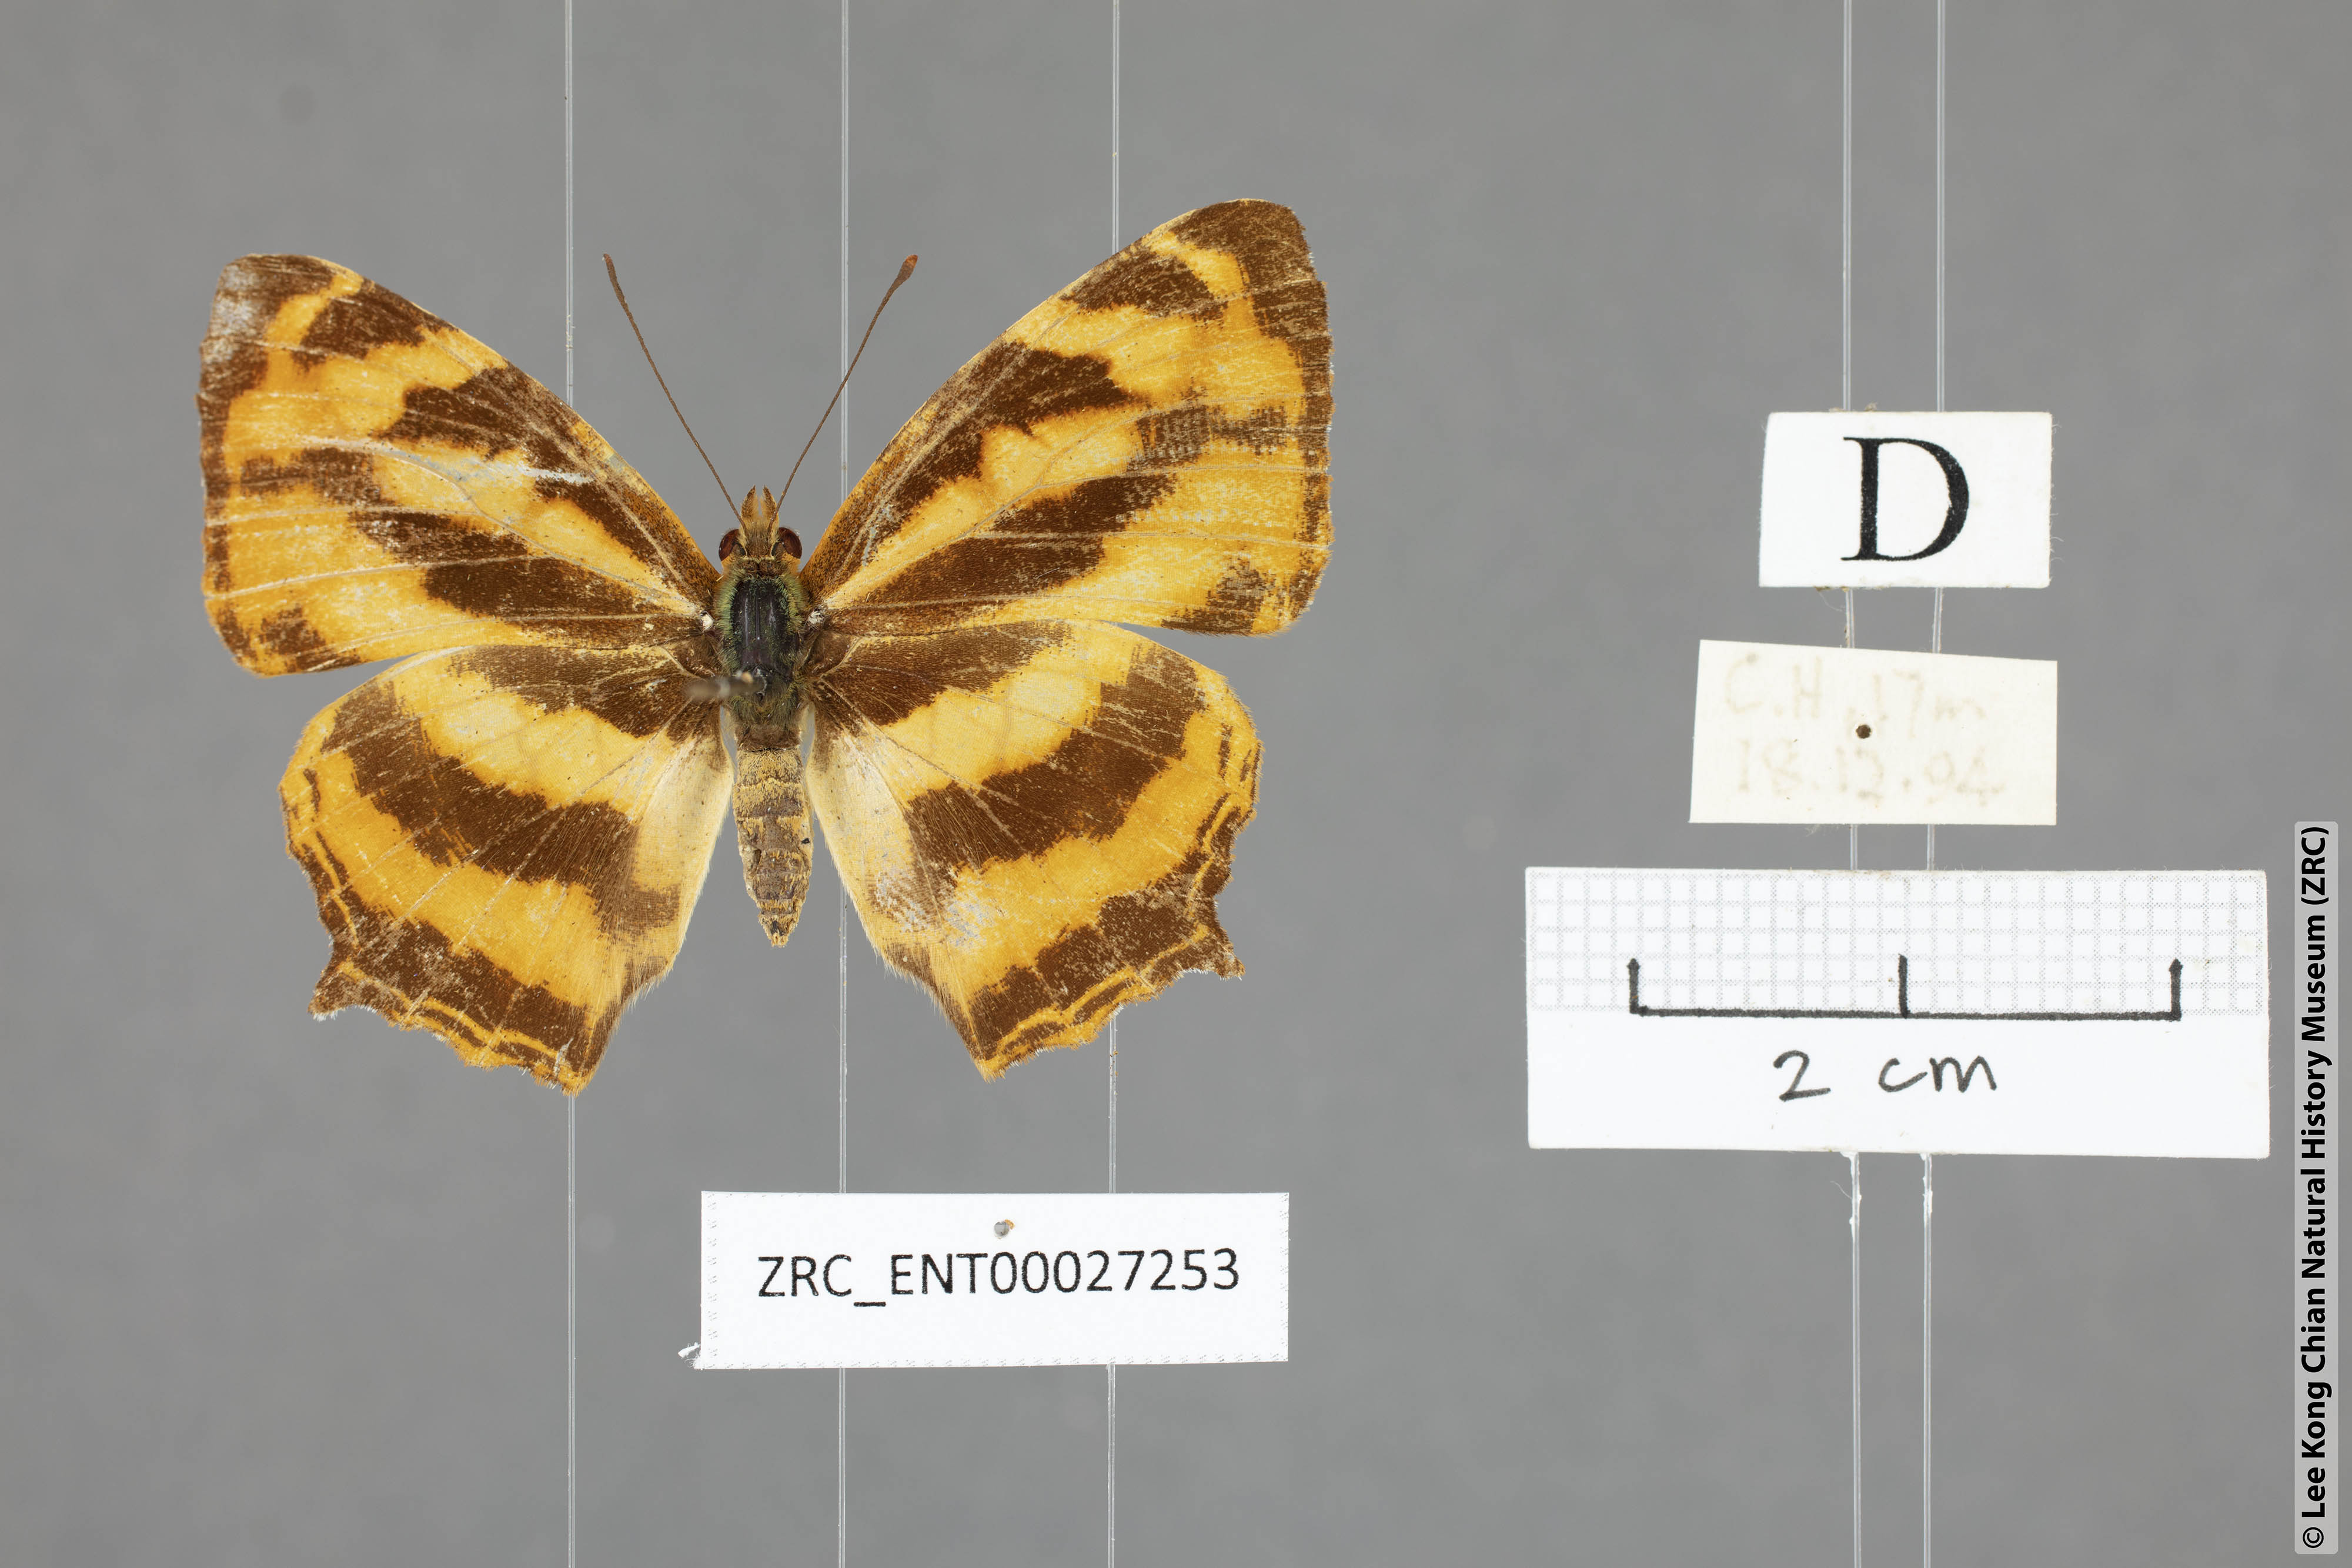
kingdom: Animalia
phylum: Arthropoda
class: Insecta
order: Lepidoptera
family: Nymphalidae
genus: Symbrenthia
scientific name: Symbrenthia hippoclus
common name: Common jester
